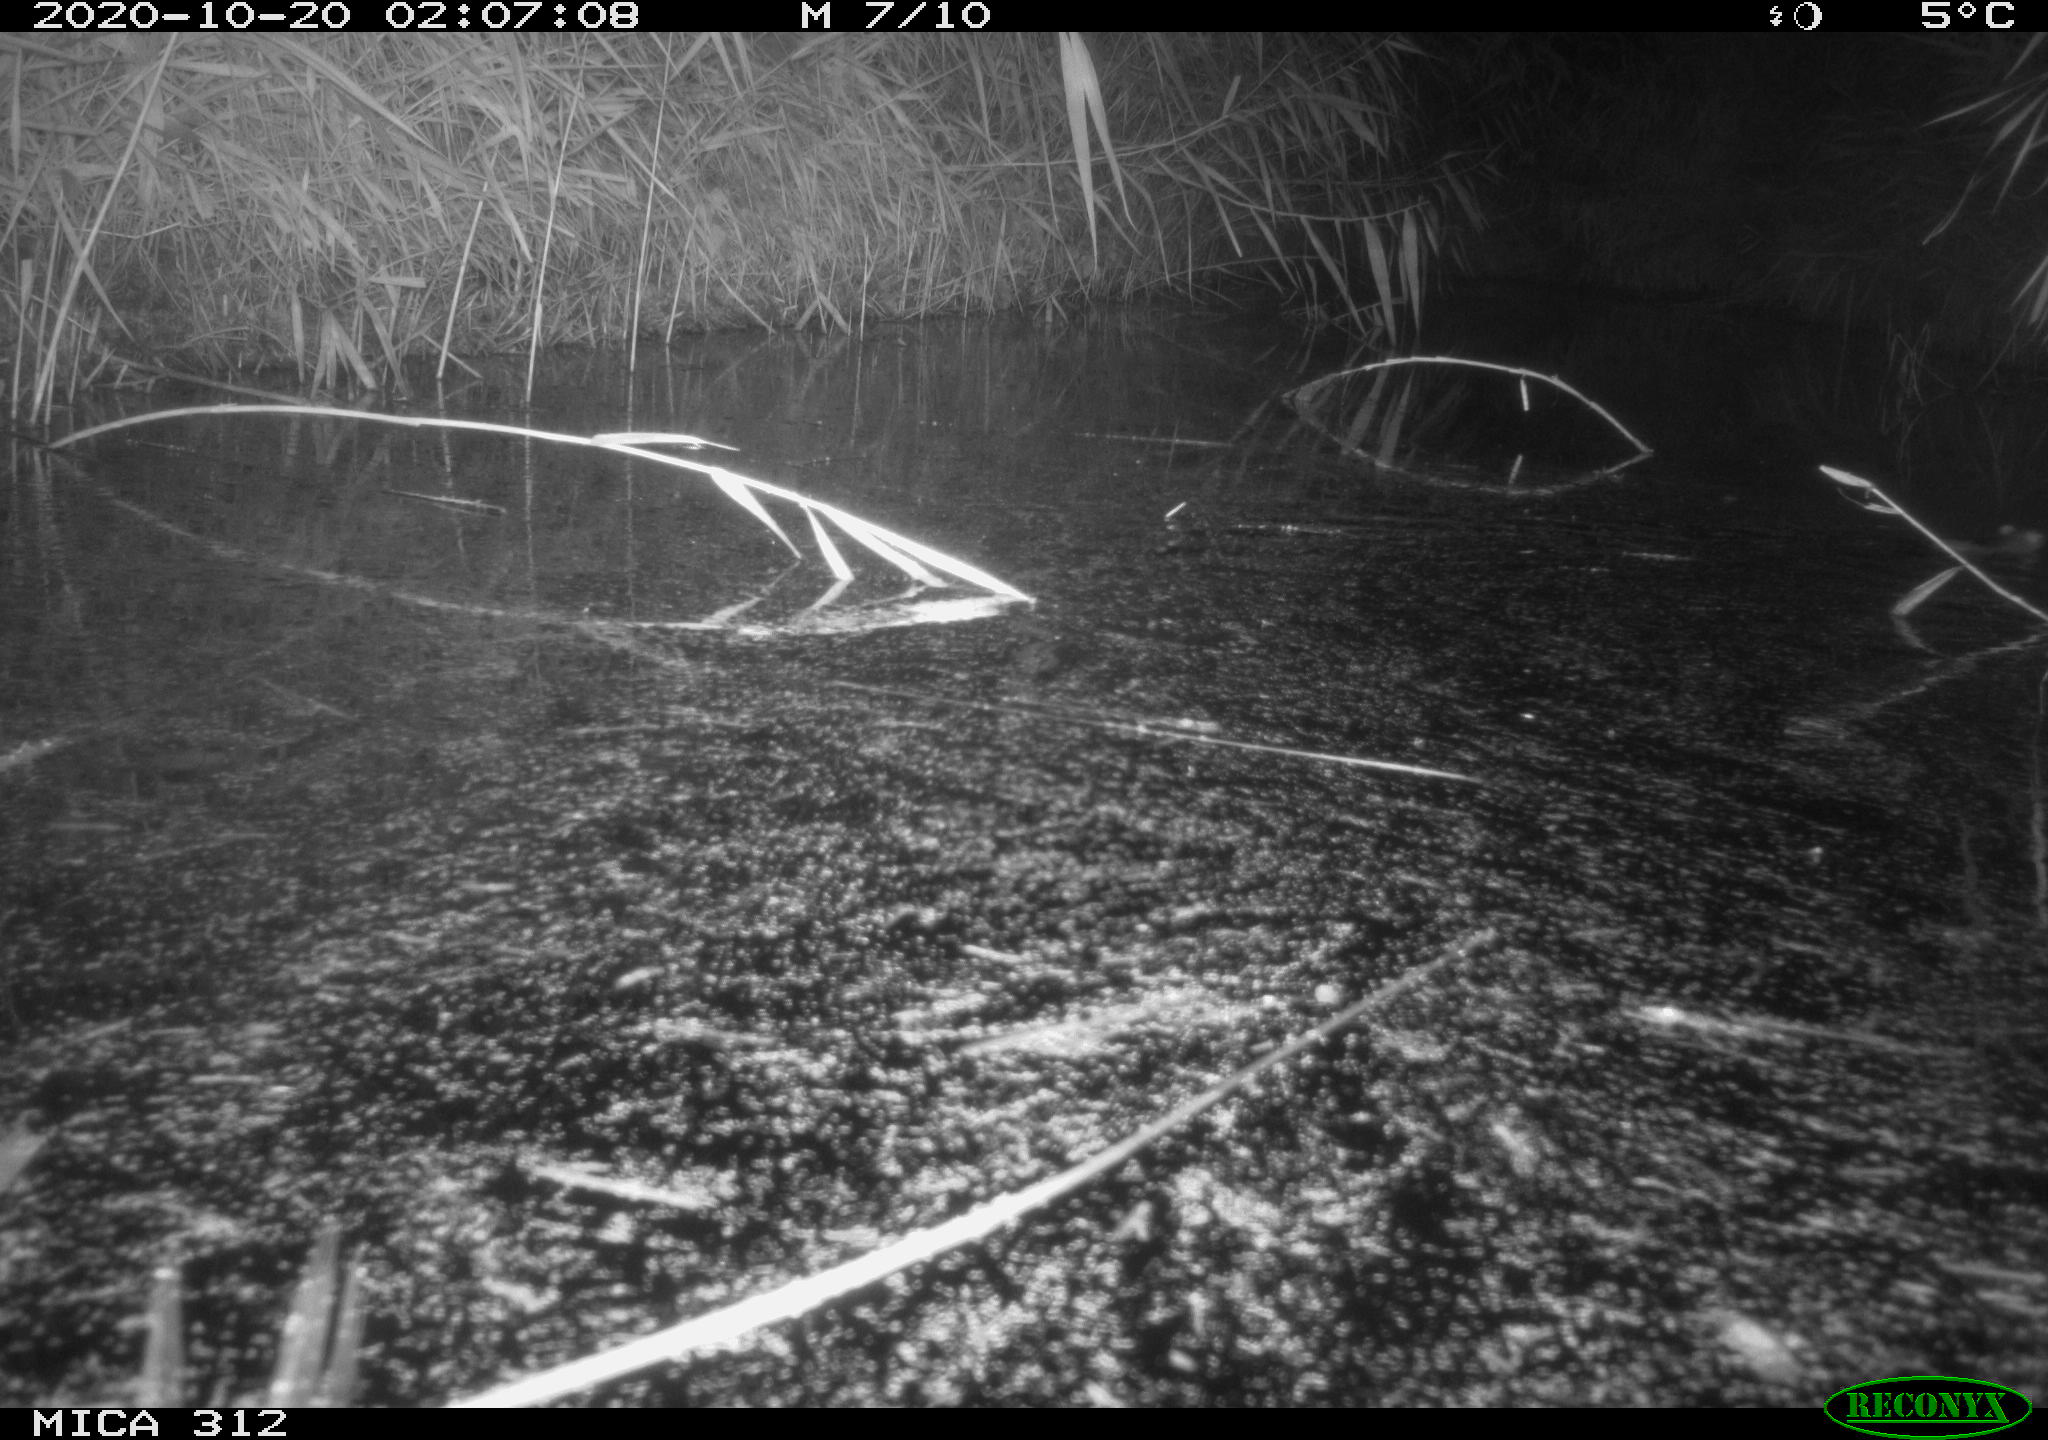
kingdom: Animalia
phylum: Chordata
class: Mammalia
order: Rodentia
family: Muridae
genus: Rattus
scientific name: Rattus norvegicus
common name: Brown rat
